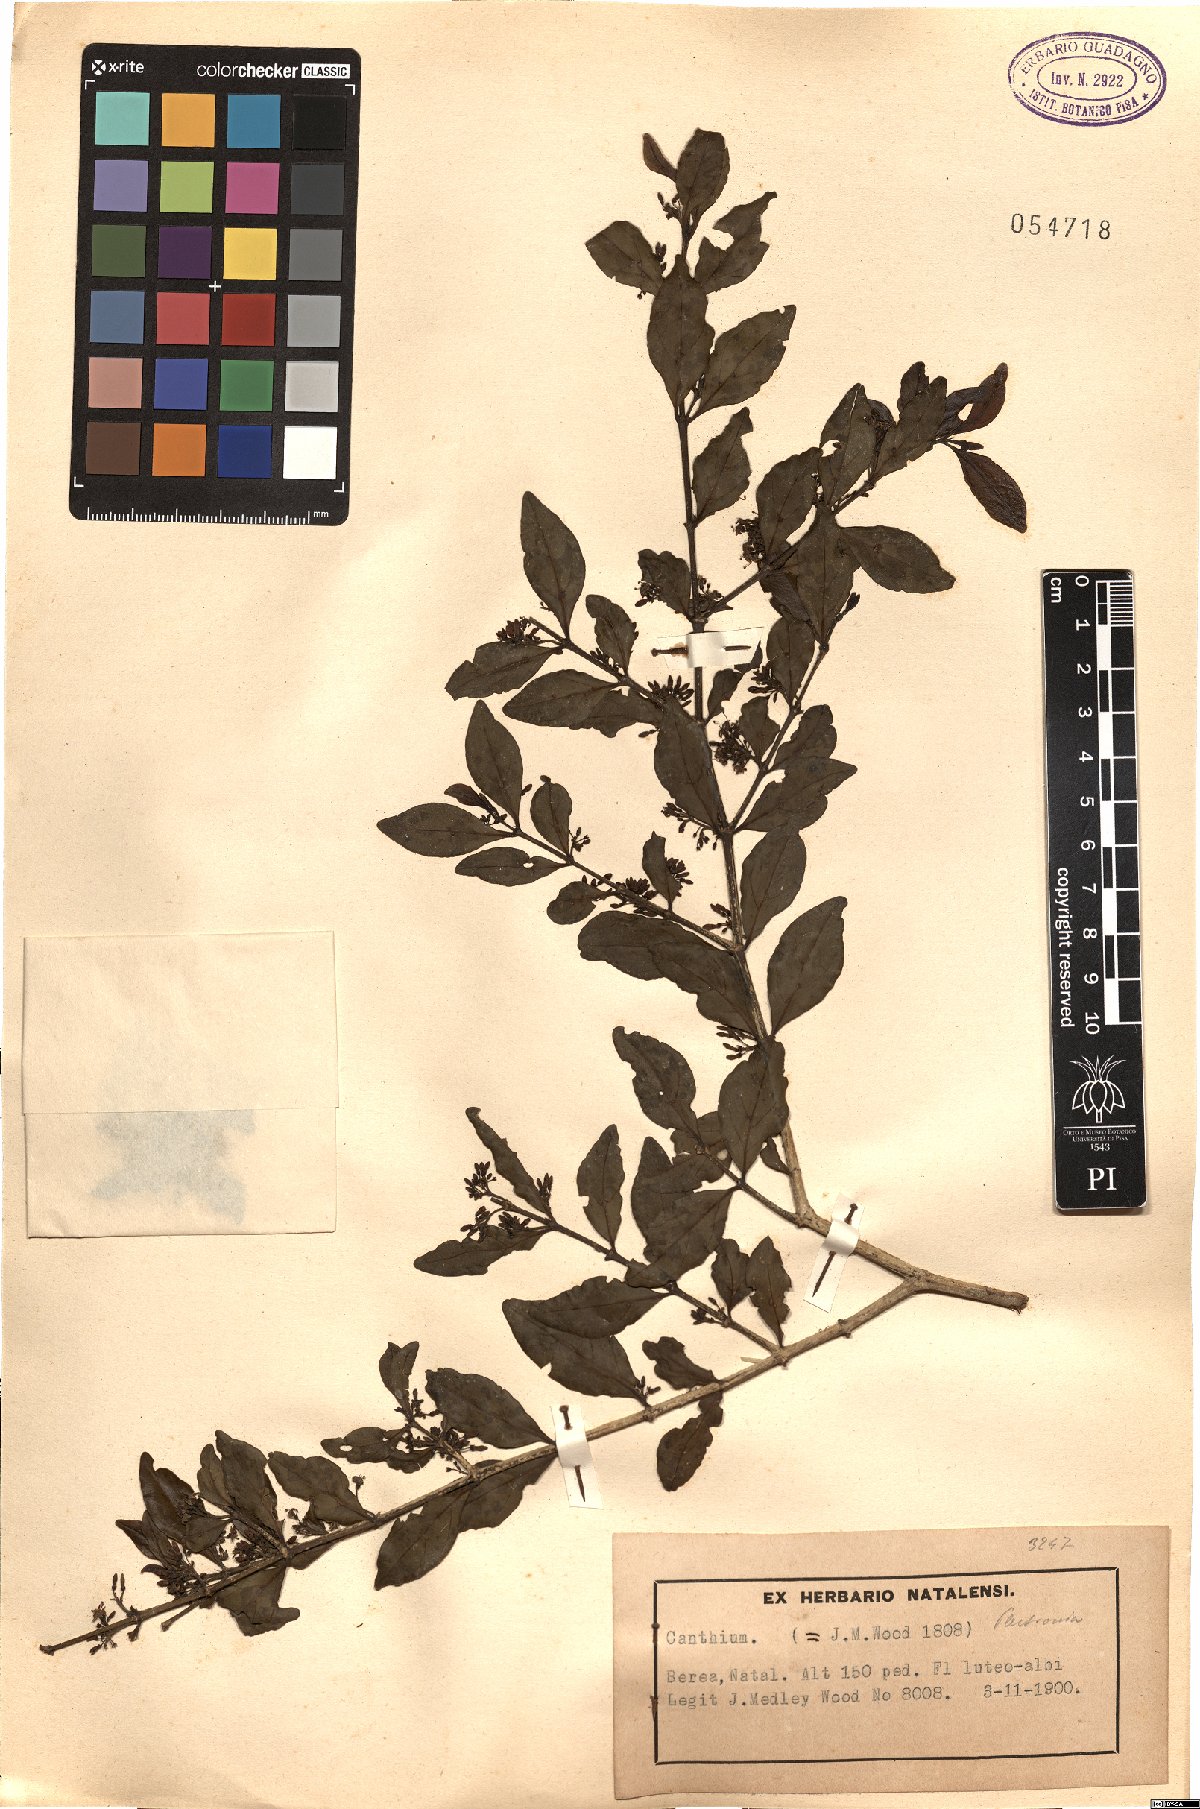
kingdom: Plantae
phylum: Tracheophyta
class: Magnoliopsida
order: Gentianales
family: Rubiaceae
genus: Canthium
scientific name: Canthium
